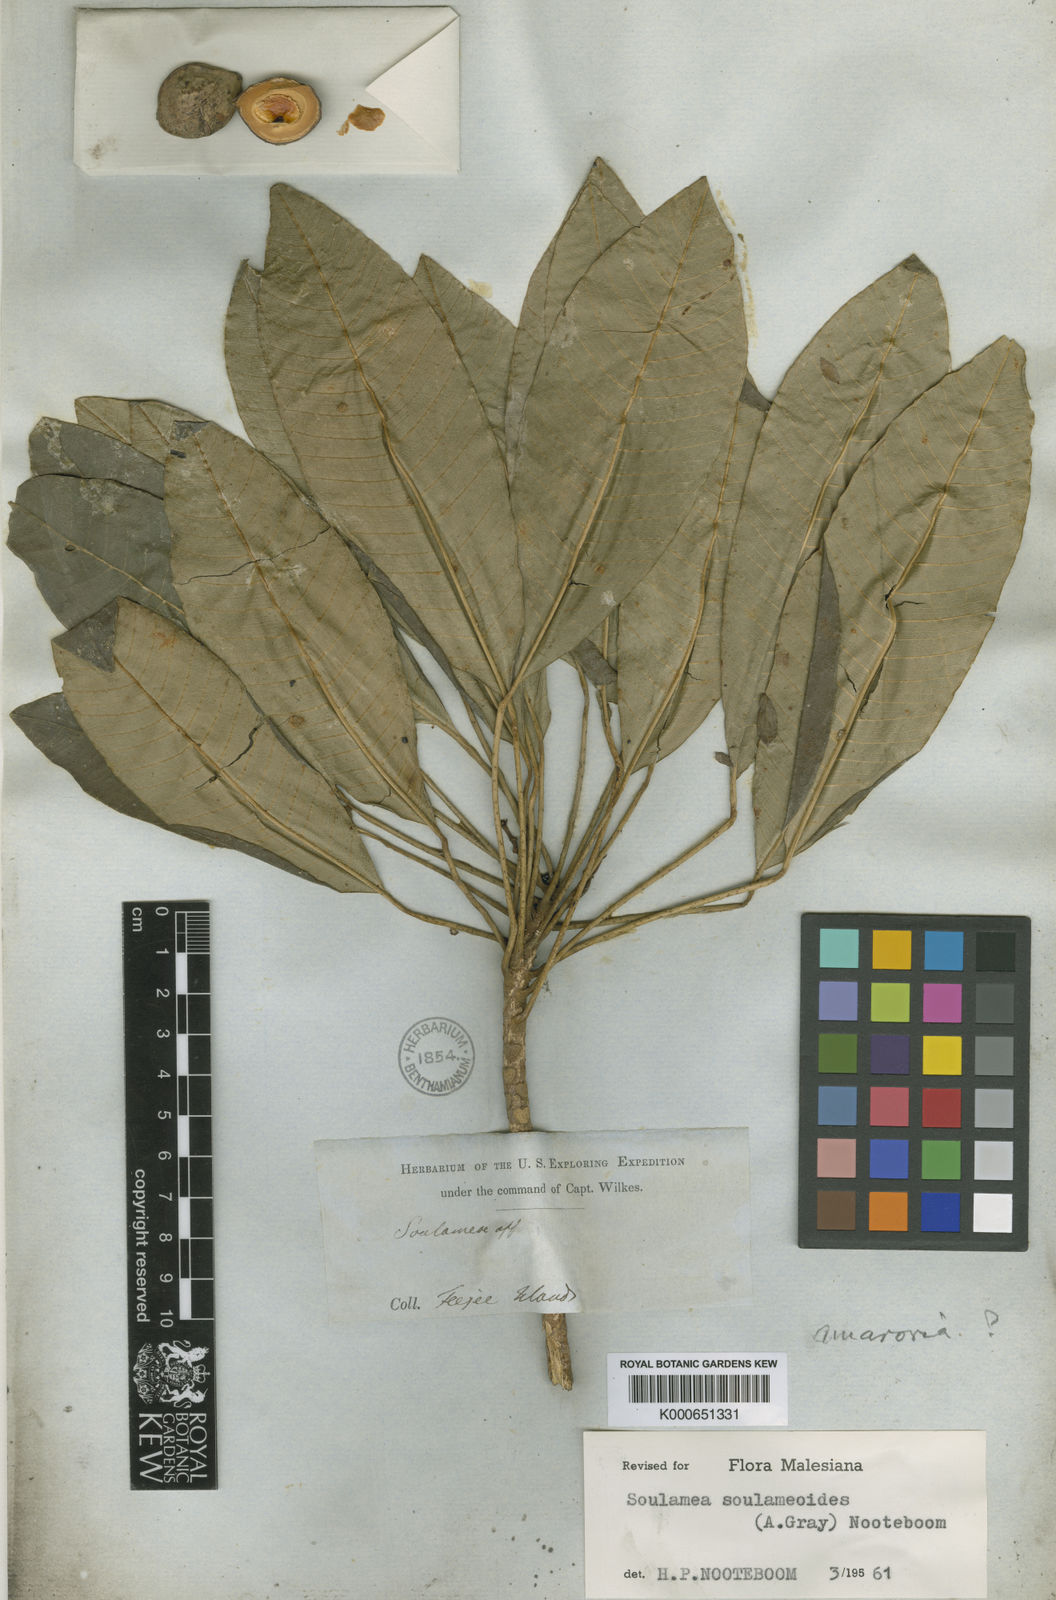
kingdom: Plantae
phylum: Tracheophyta
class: Magnoliopsida
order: Sapindales
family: Simaroubaceae
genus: Soulamea
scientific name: Soulamea amara
